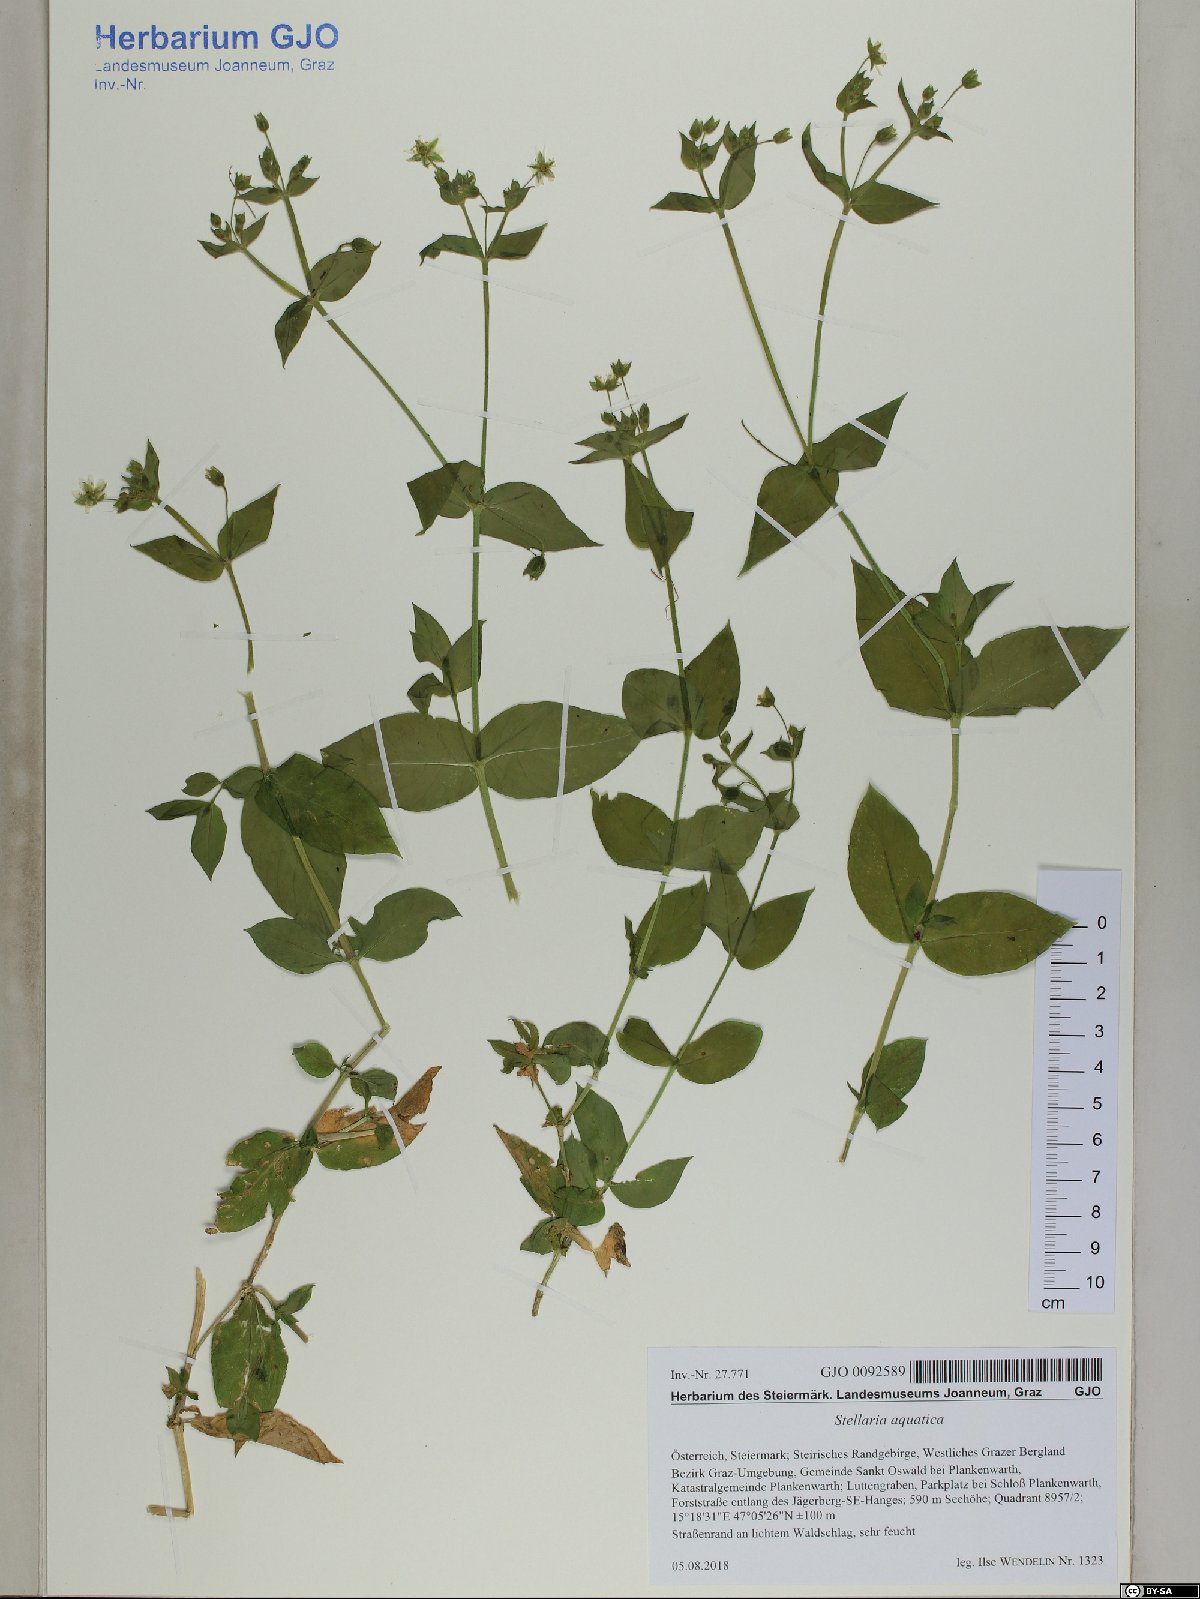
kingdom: Plantae
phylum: Tracheophyta
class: Magnoliopsida
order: Caryophyllales
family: Caryophyllaceae
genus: Stellaria
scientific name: Stellaria aquatica
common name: Water chickweed
